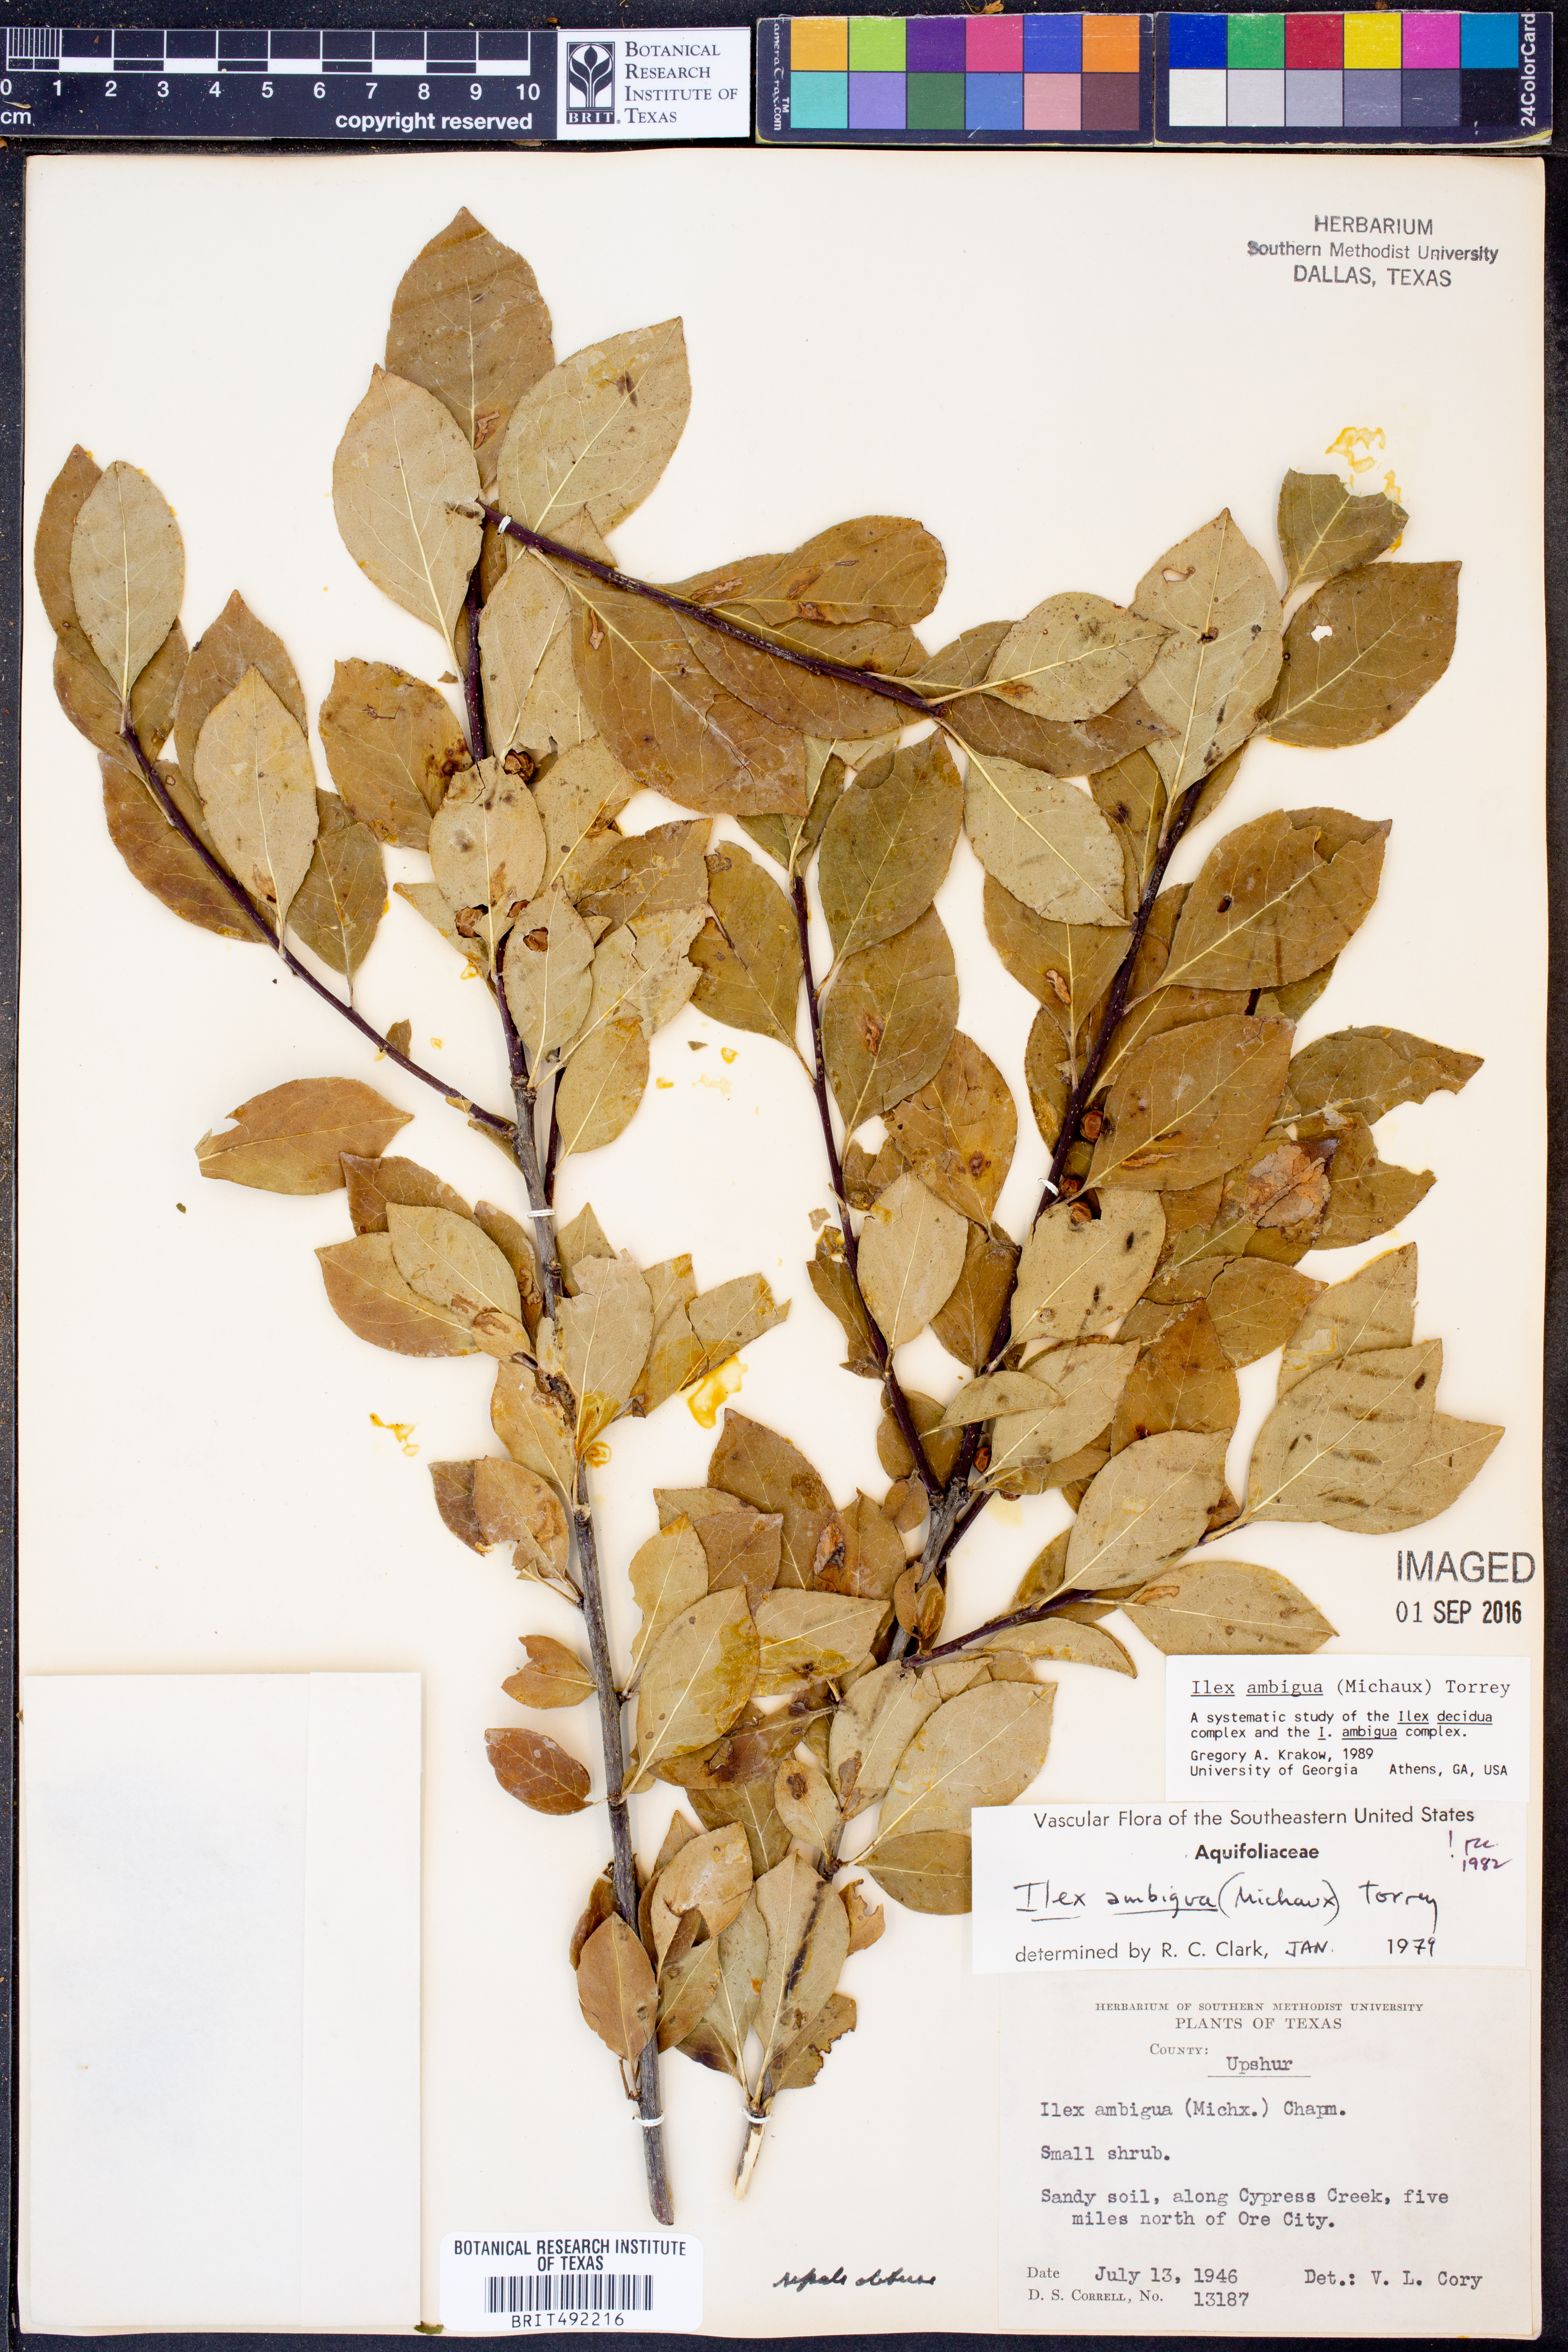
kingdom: Plantae
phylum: Tracheophyta
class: Magnoliopsida
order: Aquifoliales
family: Aquifoliaceae
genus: Ilex
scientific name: Ilex ambigua
